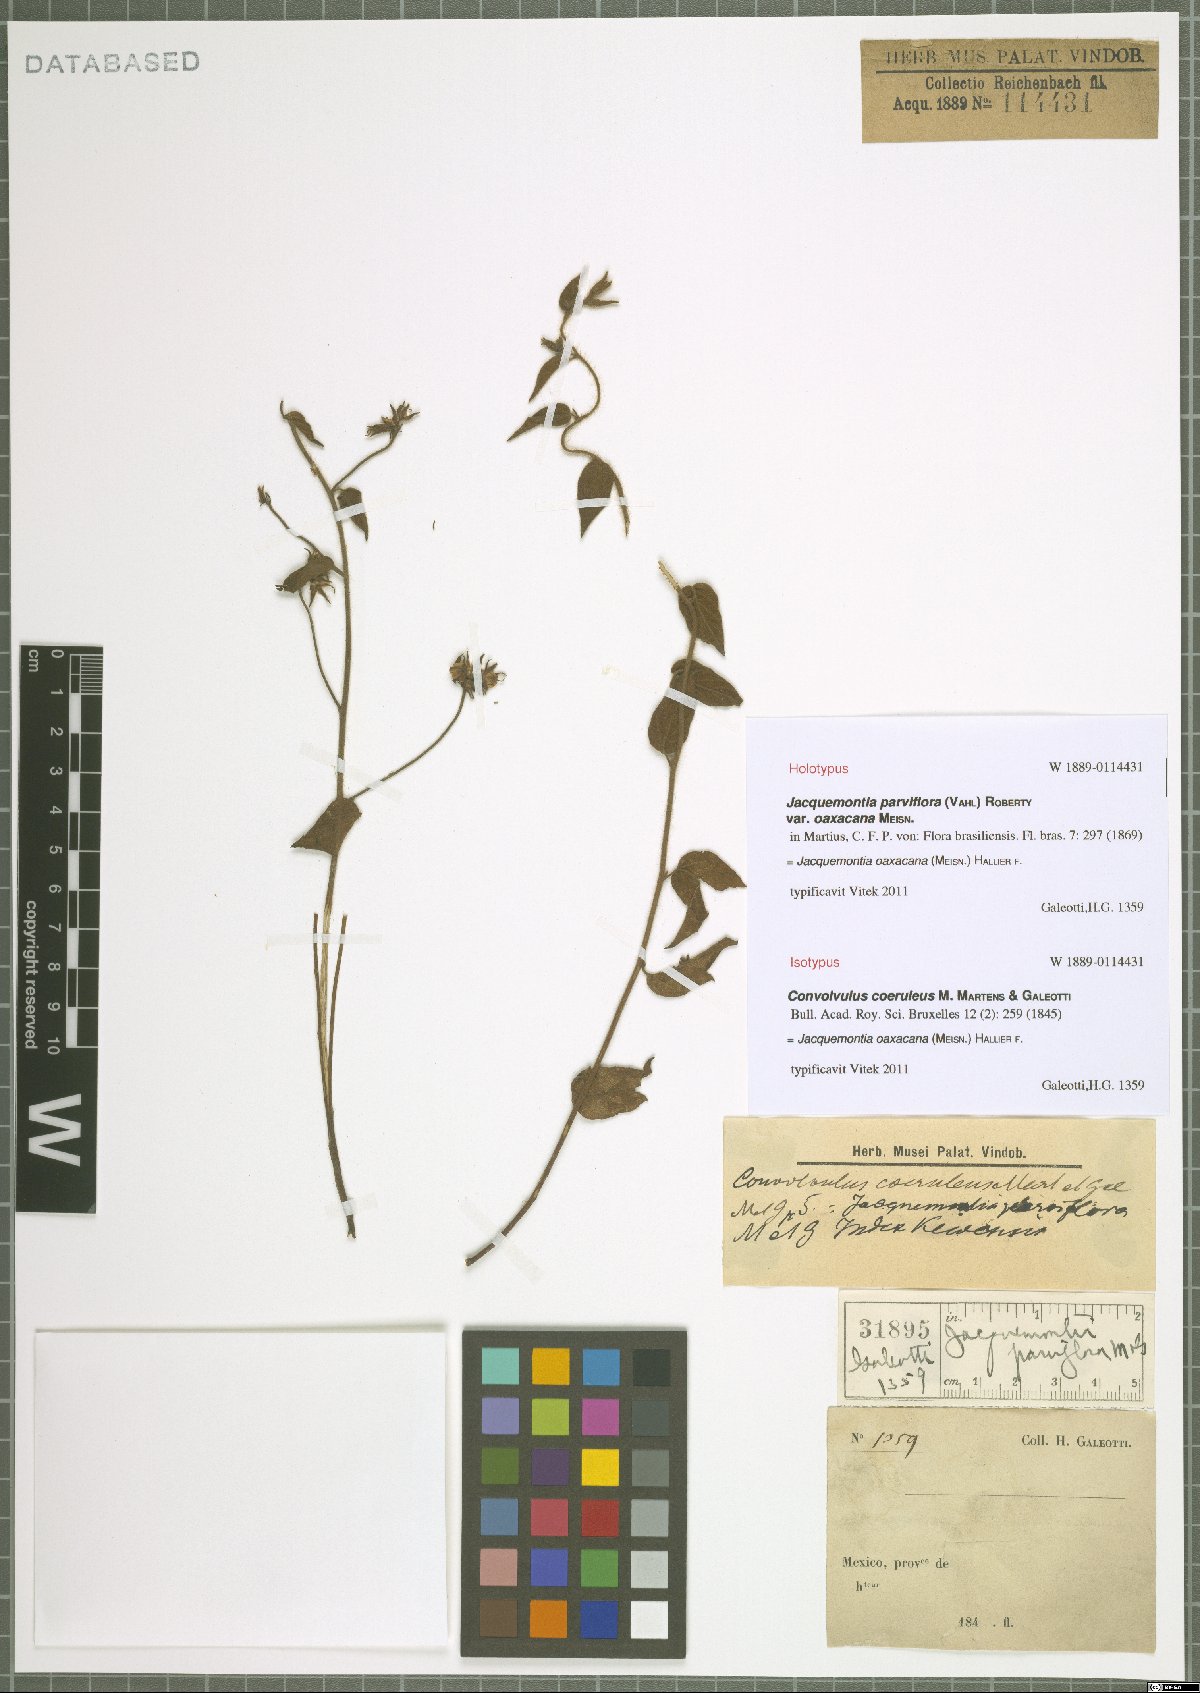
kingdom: Plantae
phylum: Tracheophyta
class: Magnoliopsida
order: Solanales
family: Convolvulaceae
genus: Jacquemontia
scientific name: Jacquemontia oaxacana
